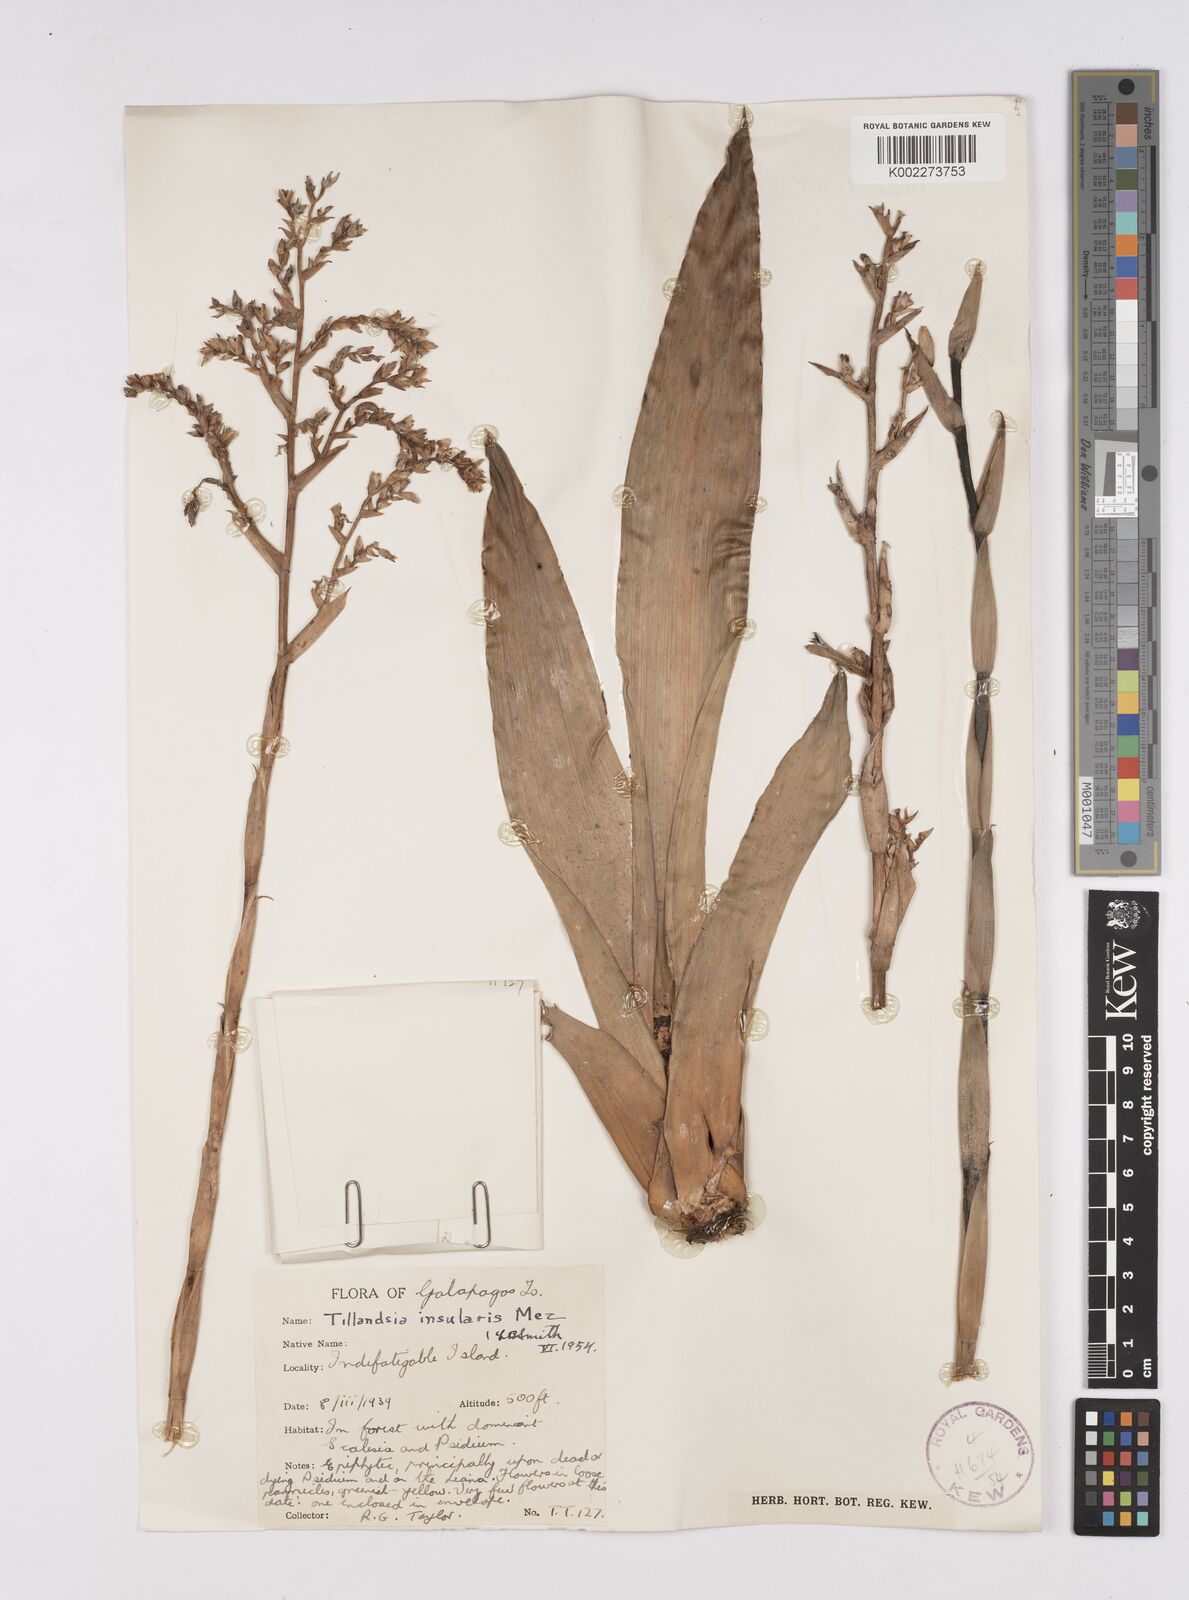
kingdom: Plantae
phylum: Tracheophyta
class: Liliopsida
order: Poales
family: Bromeliaceae
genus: Racinaea
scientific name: Racinaea insularis
